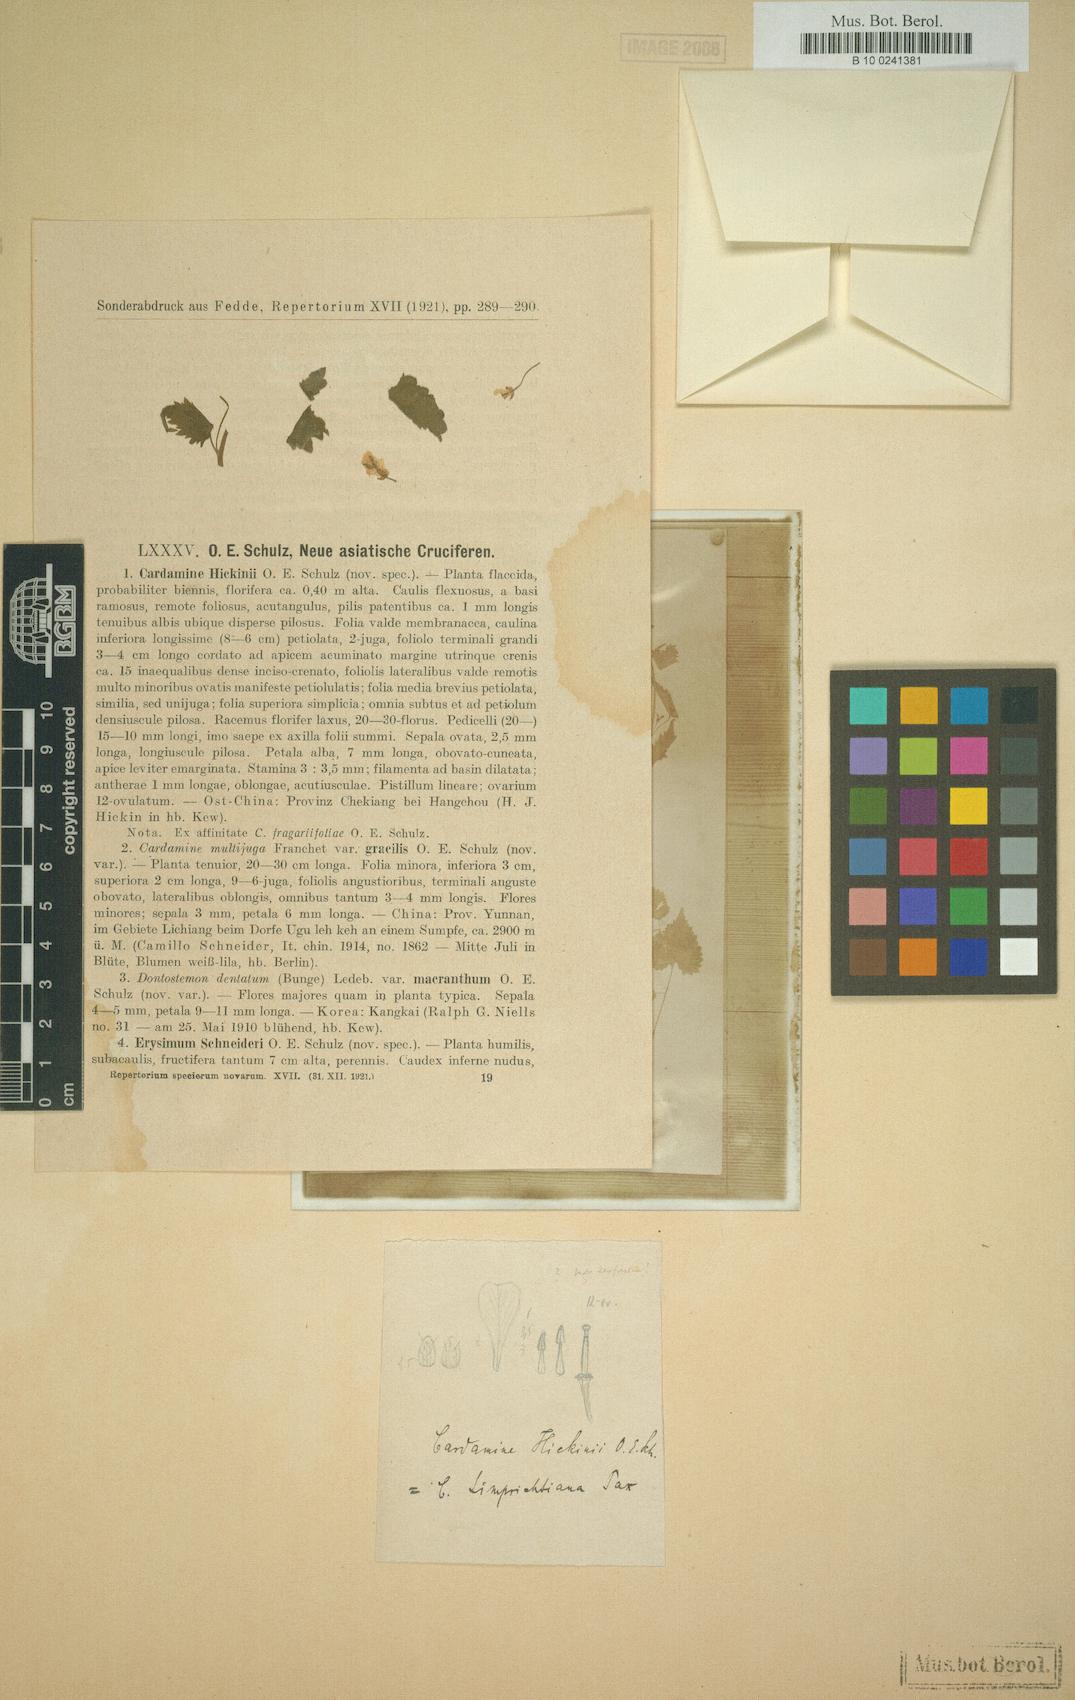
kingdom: Plantae
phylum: Tracheophyta
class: Magnoliopsida
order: Brassicales
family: Brassicaceae
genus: Sinalliaria
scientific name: Sinalliaria limprichtiana
